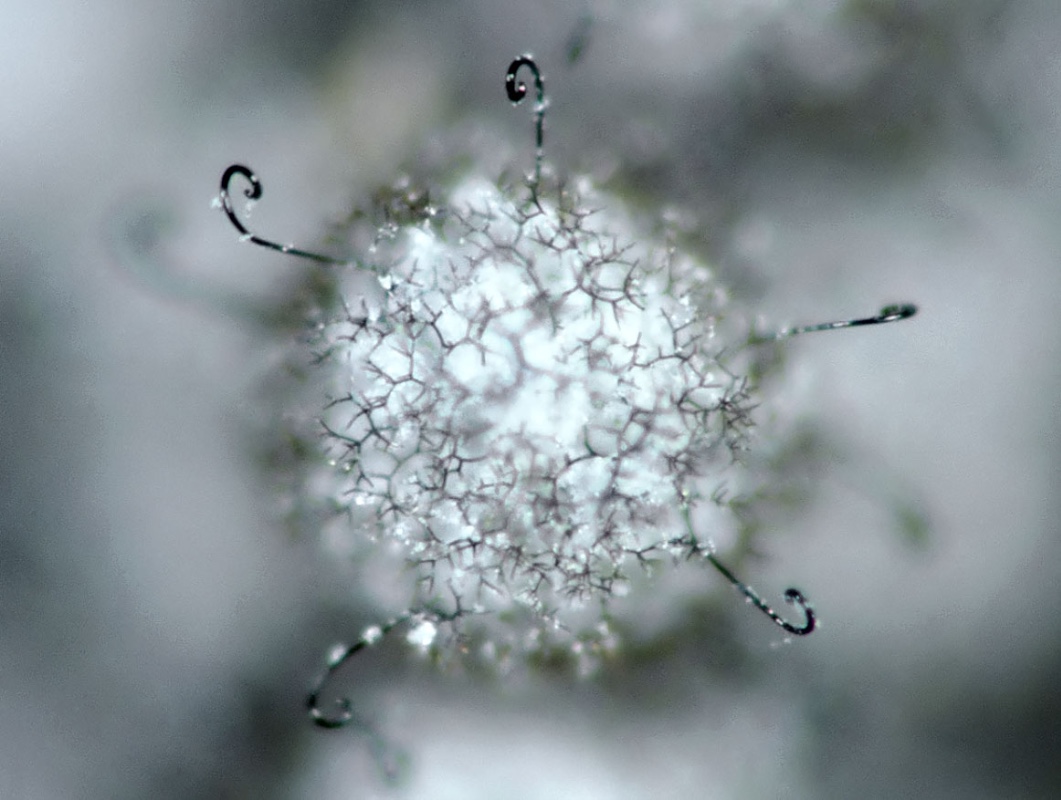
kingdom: Fungi
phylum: Ascomycota
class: Leotiomycetes
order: Helotiales
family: Myxotrichaceae
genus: Myxotrichum
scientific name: Myxotrichum chartarum
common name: bispe-hagekugle
